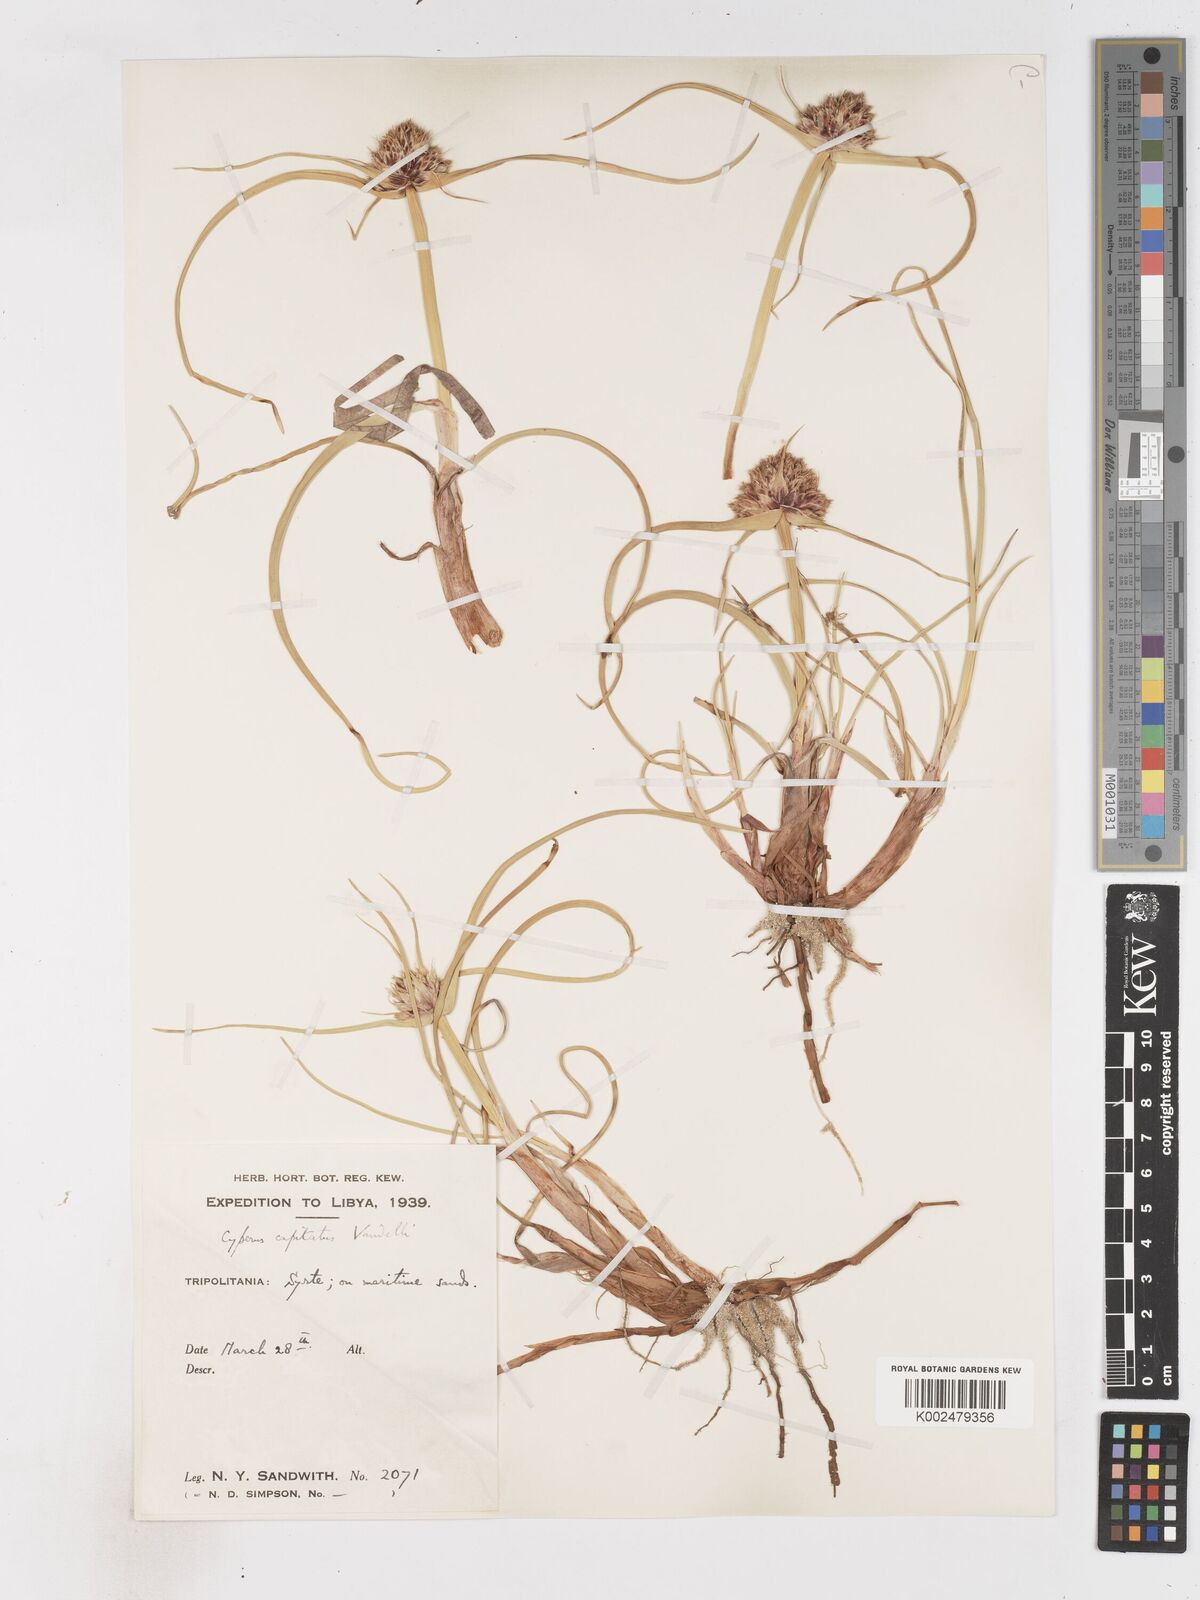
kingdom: Plantae
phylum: Tracheophyta
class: Liliopsida
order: Poales
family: Cyperaceae
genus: Cyperus
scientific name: Cyperus capitatus
